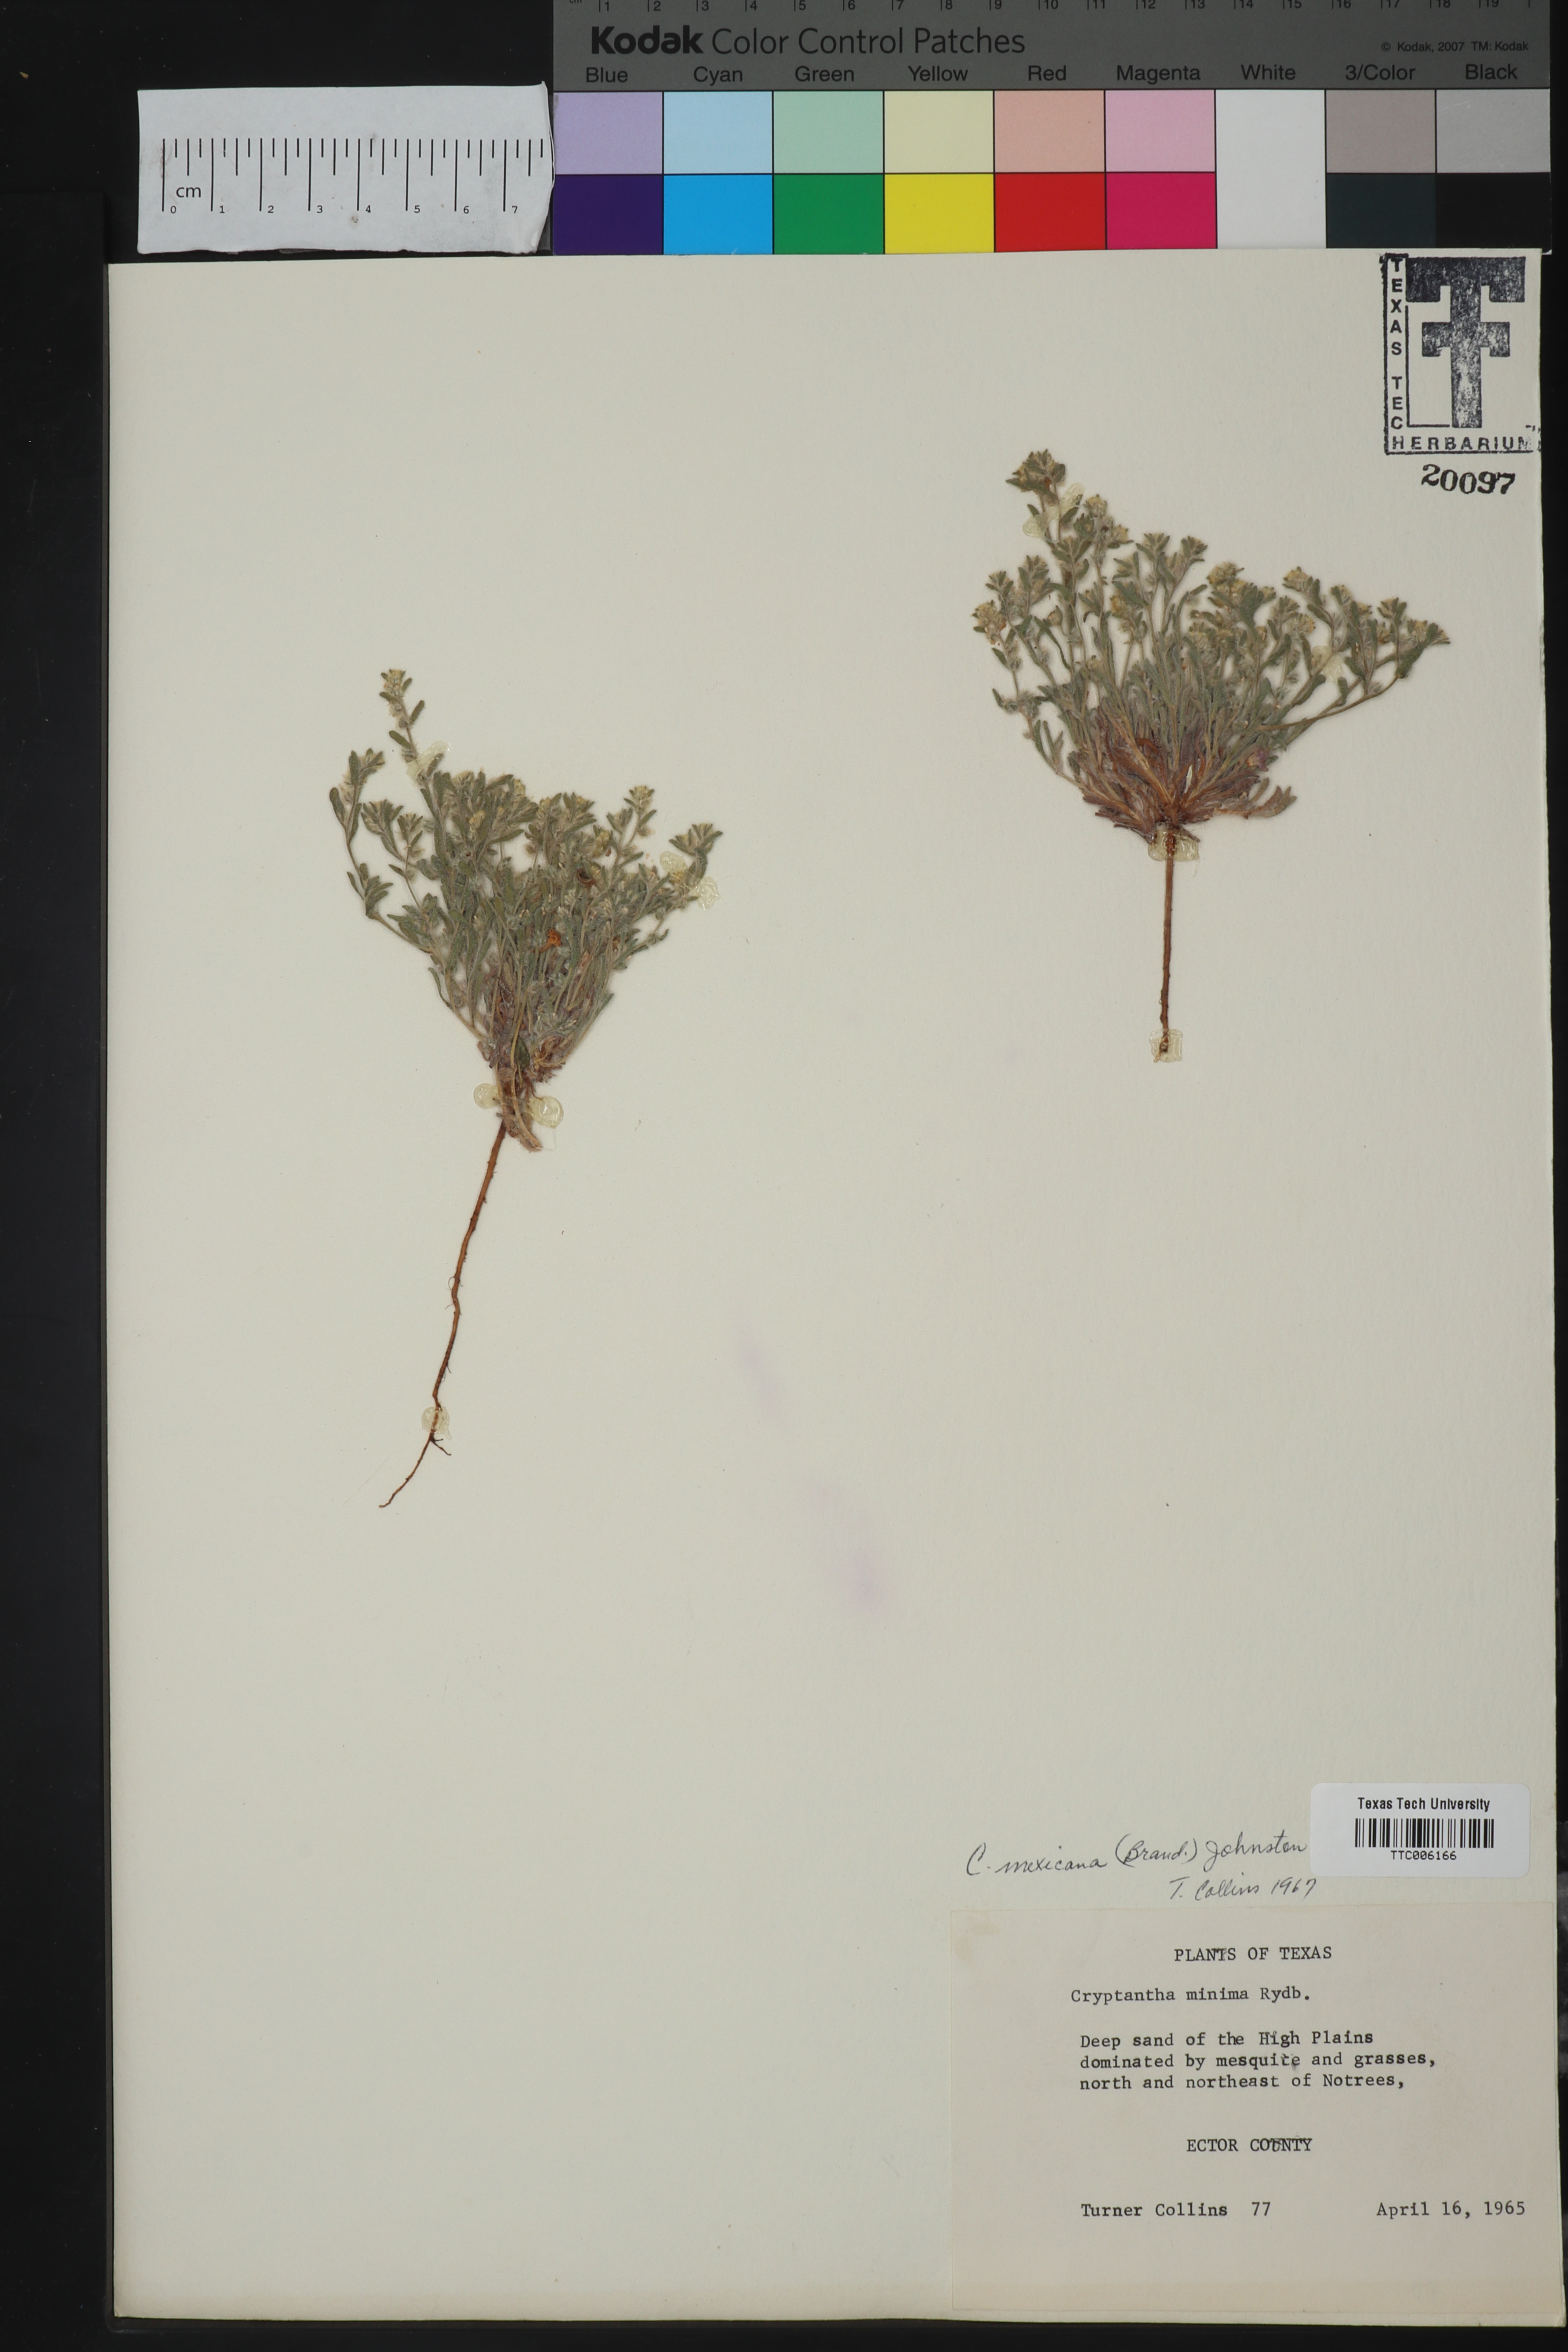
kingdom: Plantae
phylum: Tracheophyta
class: Magnoliopsida
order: Boraginales
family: Boraginaceae
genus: Johnstonella
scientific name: Johnstonella mexicana
